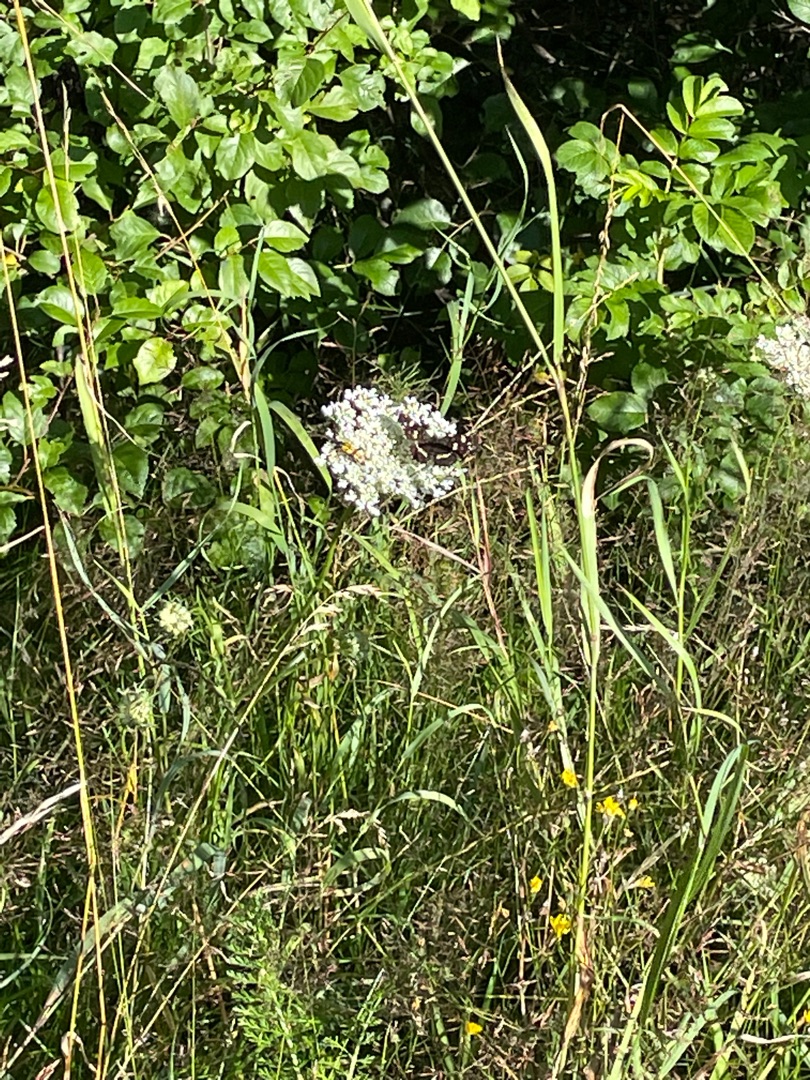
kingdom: Animalia
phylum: Arthropoda
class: Insecta
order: Lepidoptera
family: Nymphalidae
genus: Araschnia
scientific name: Araschnia levana
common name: Nældesommerfugl
